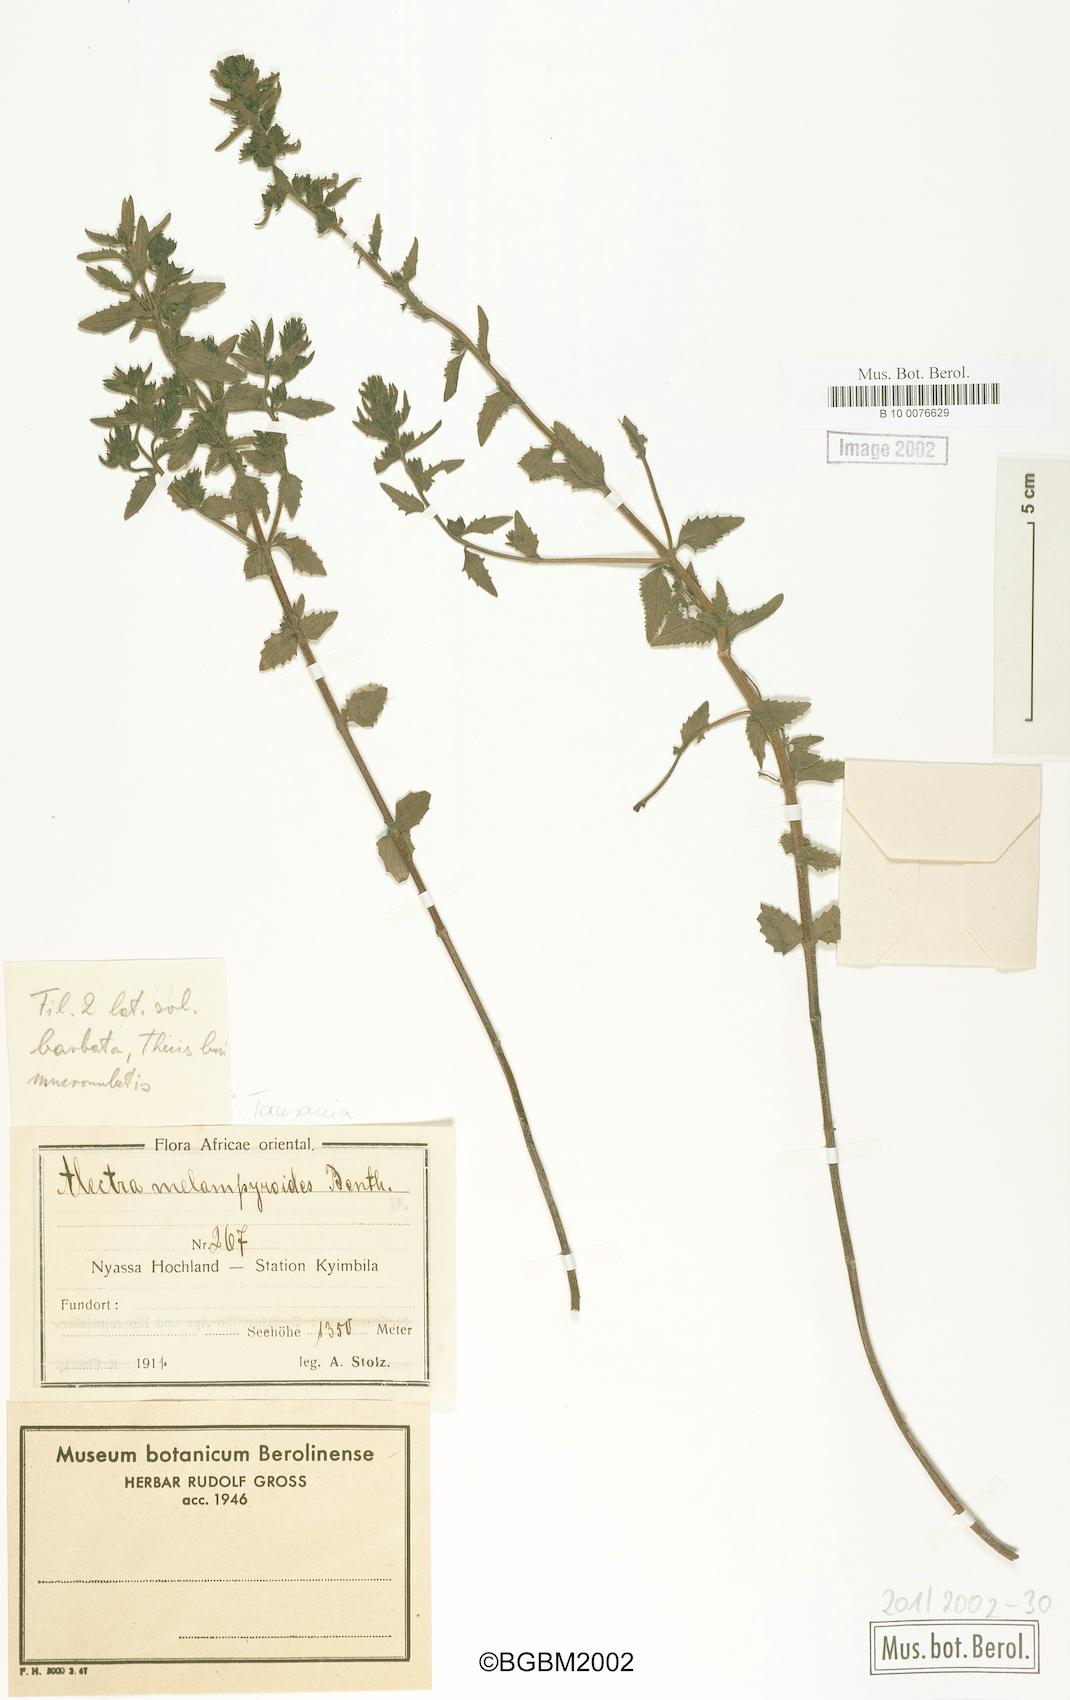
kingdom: Plantae
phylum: Tracheophyta
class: Magnoliopsida
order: Lamiales
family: Orobanchaceae
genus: Alectra
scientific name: Alectra sessiliflora
